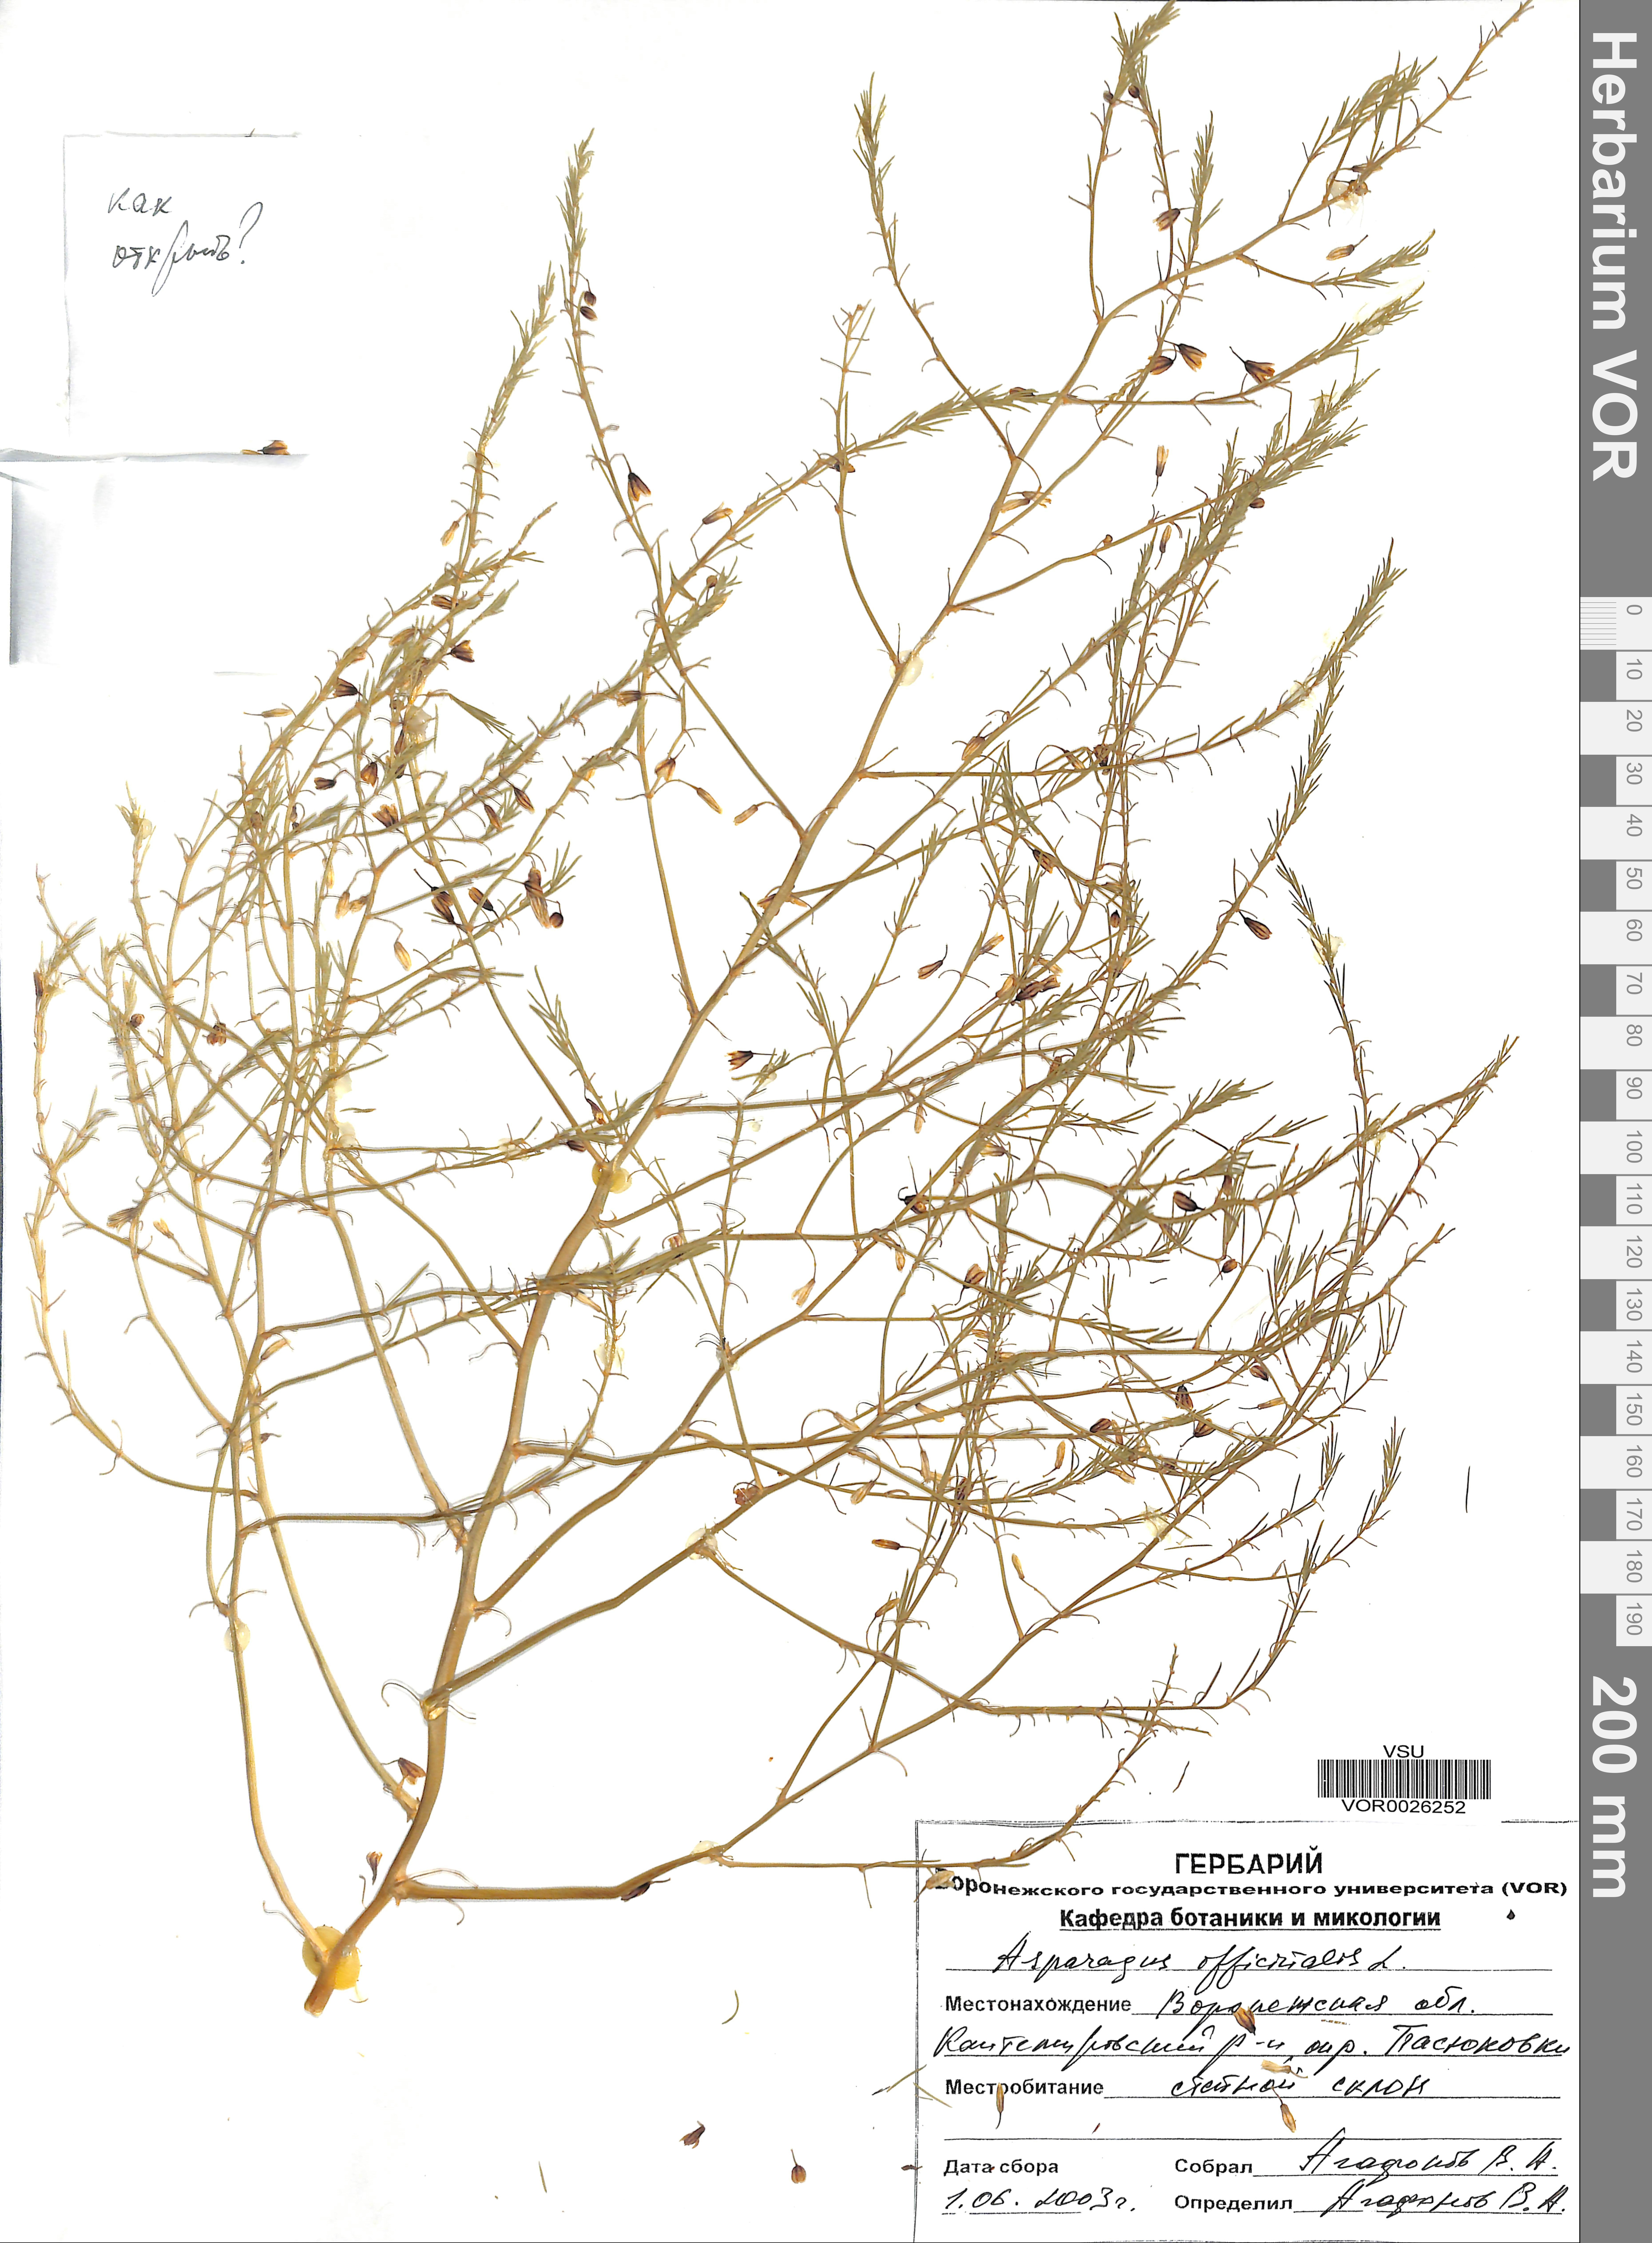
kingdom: Plantae
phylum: Tracheophyta
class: Liliopsida
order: Asparagales
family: Asparagaceae
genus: Asparagus
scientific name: Asparagus officinalis
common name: Garden asparagus
